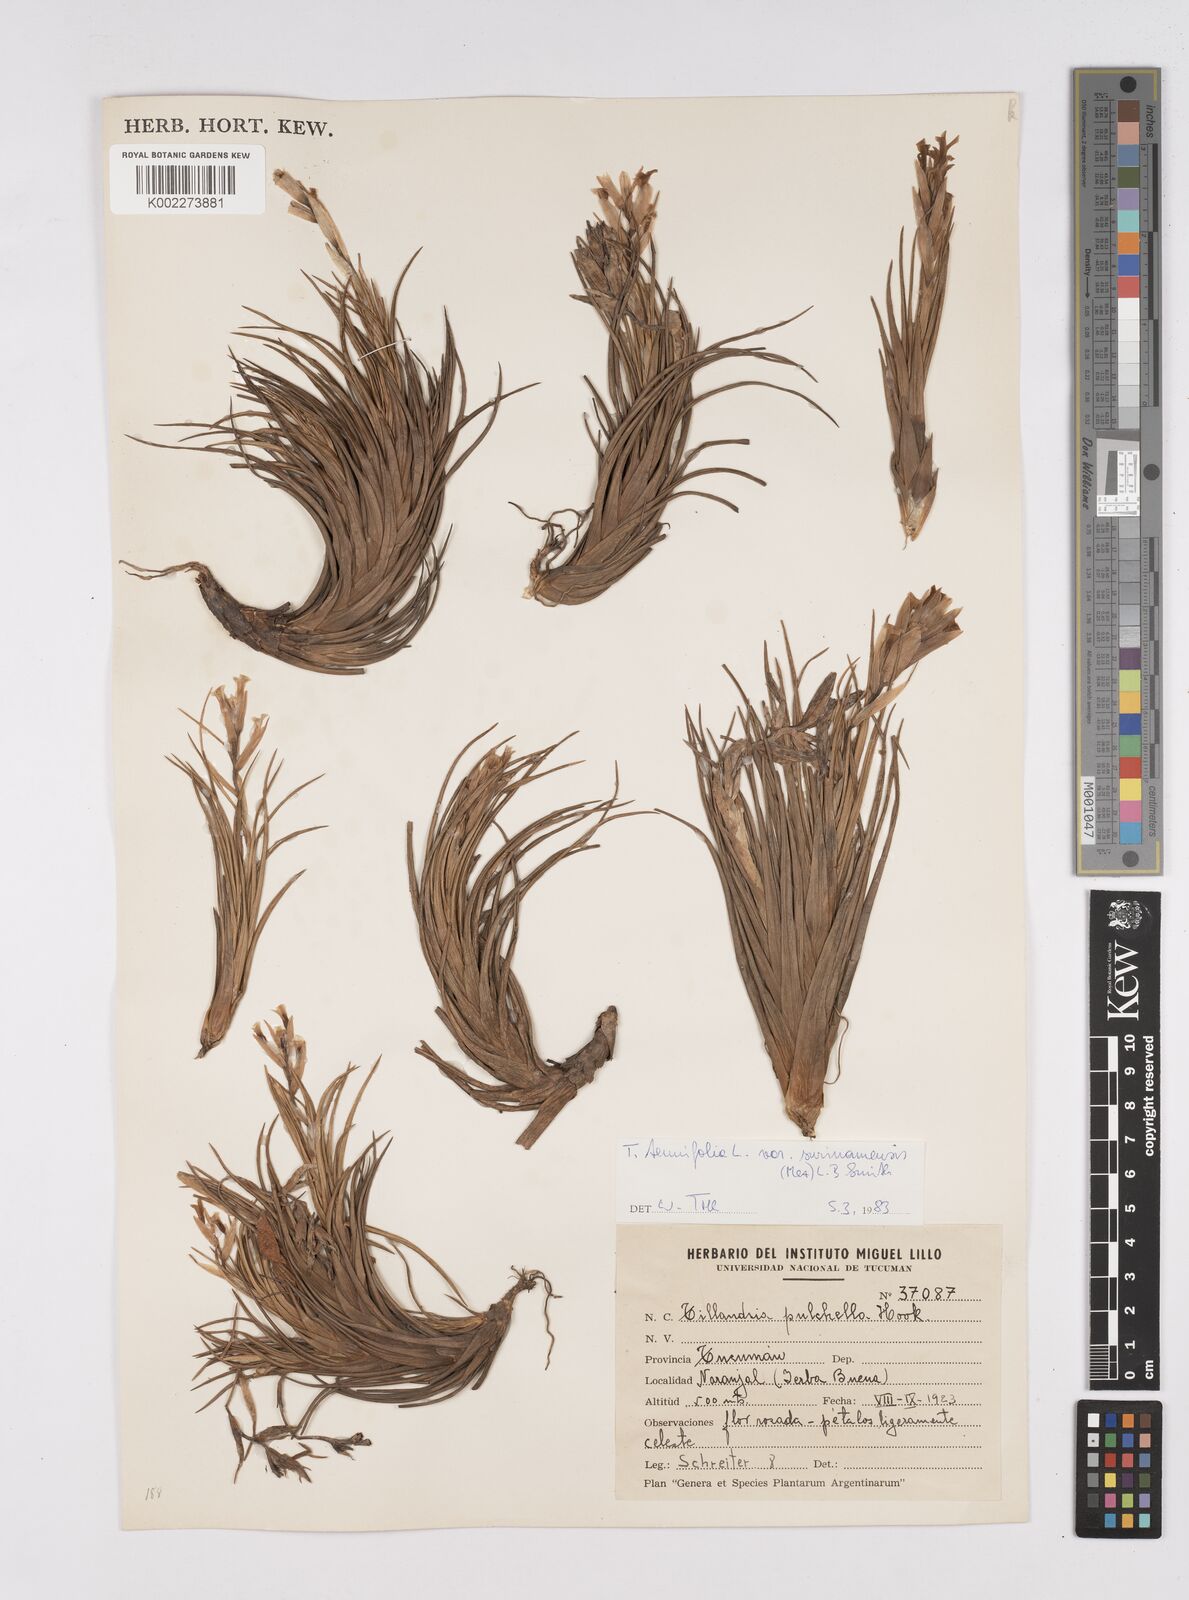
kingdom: Plantae
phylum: Tracheophyta
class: Liliopsida
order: Poales
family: Bromeliaceae
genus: Tillandsia
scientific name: Tillandsia tenuifolia
